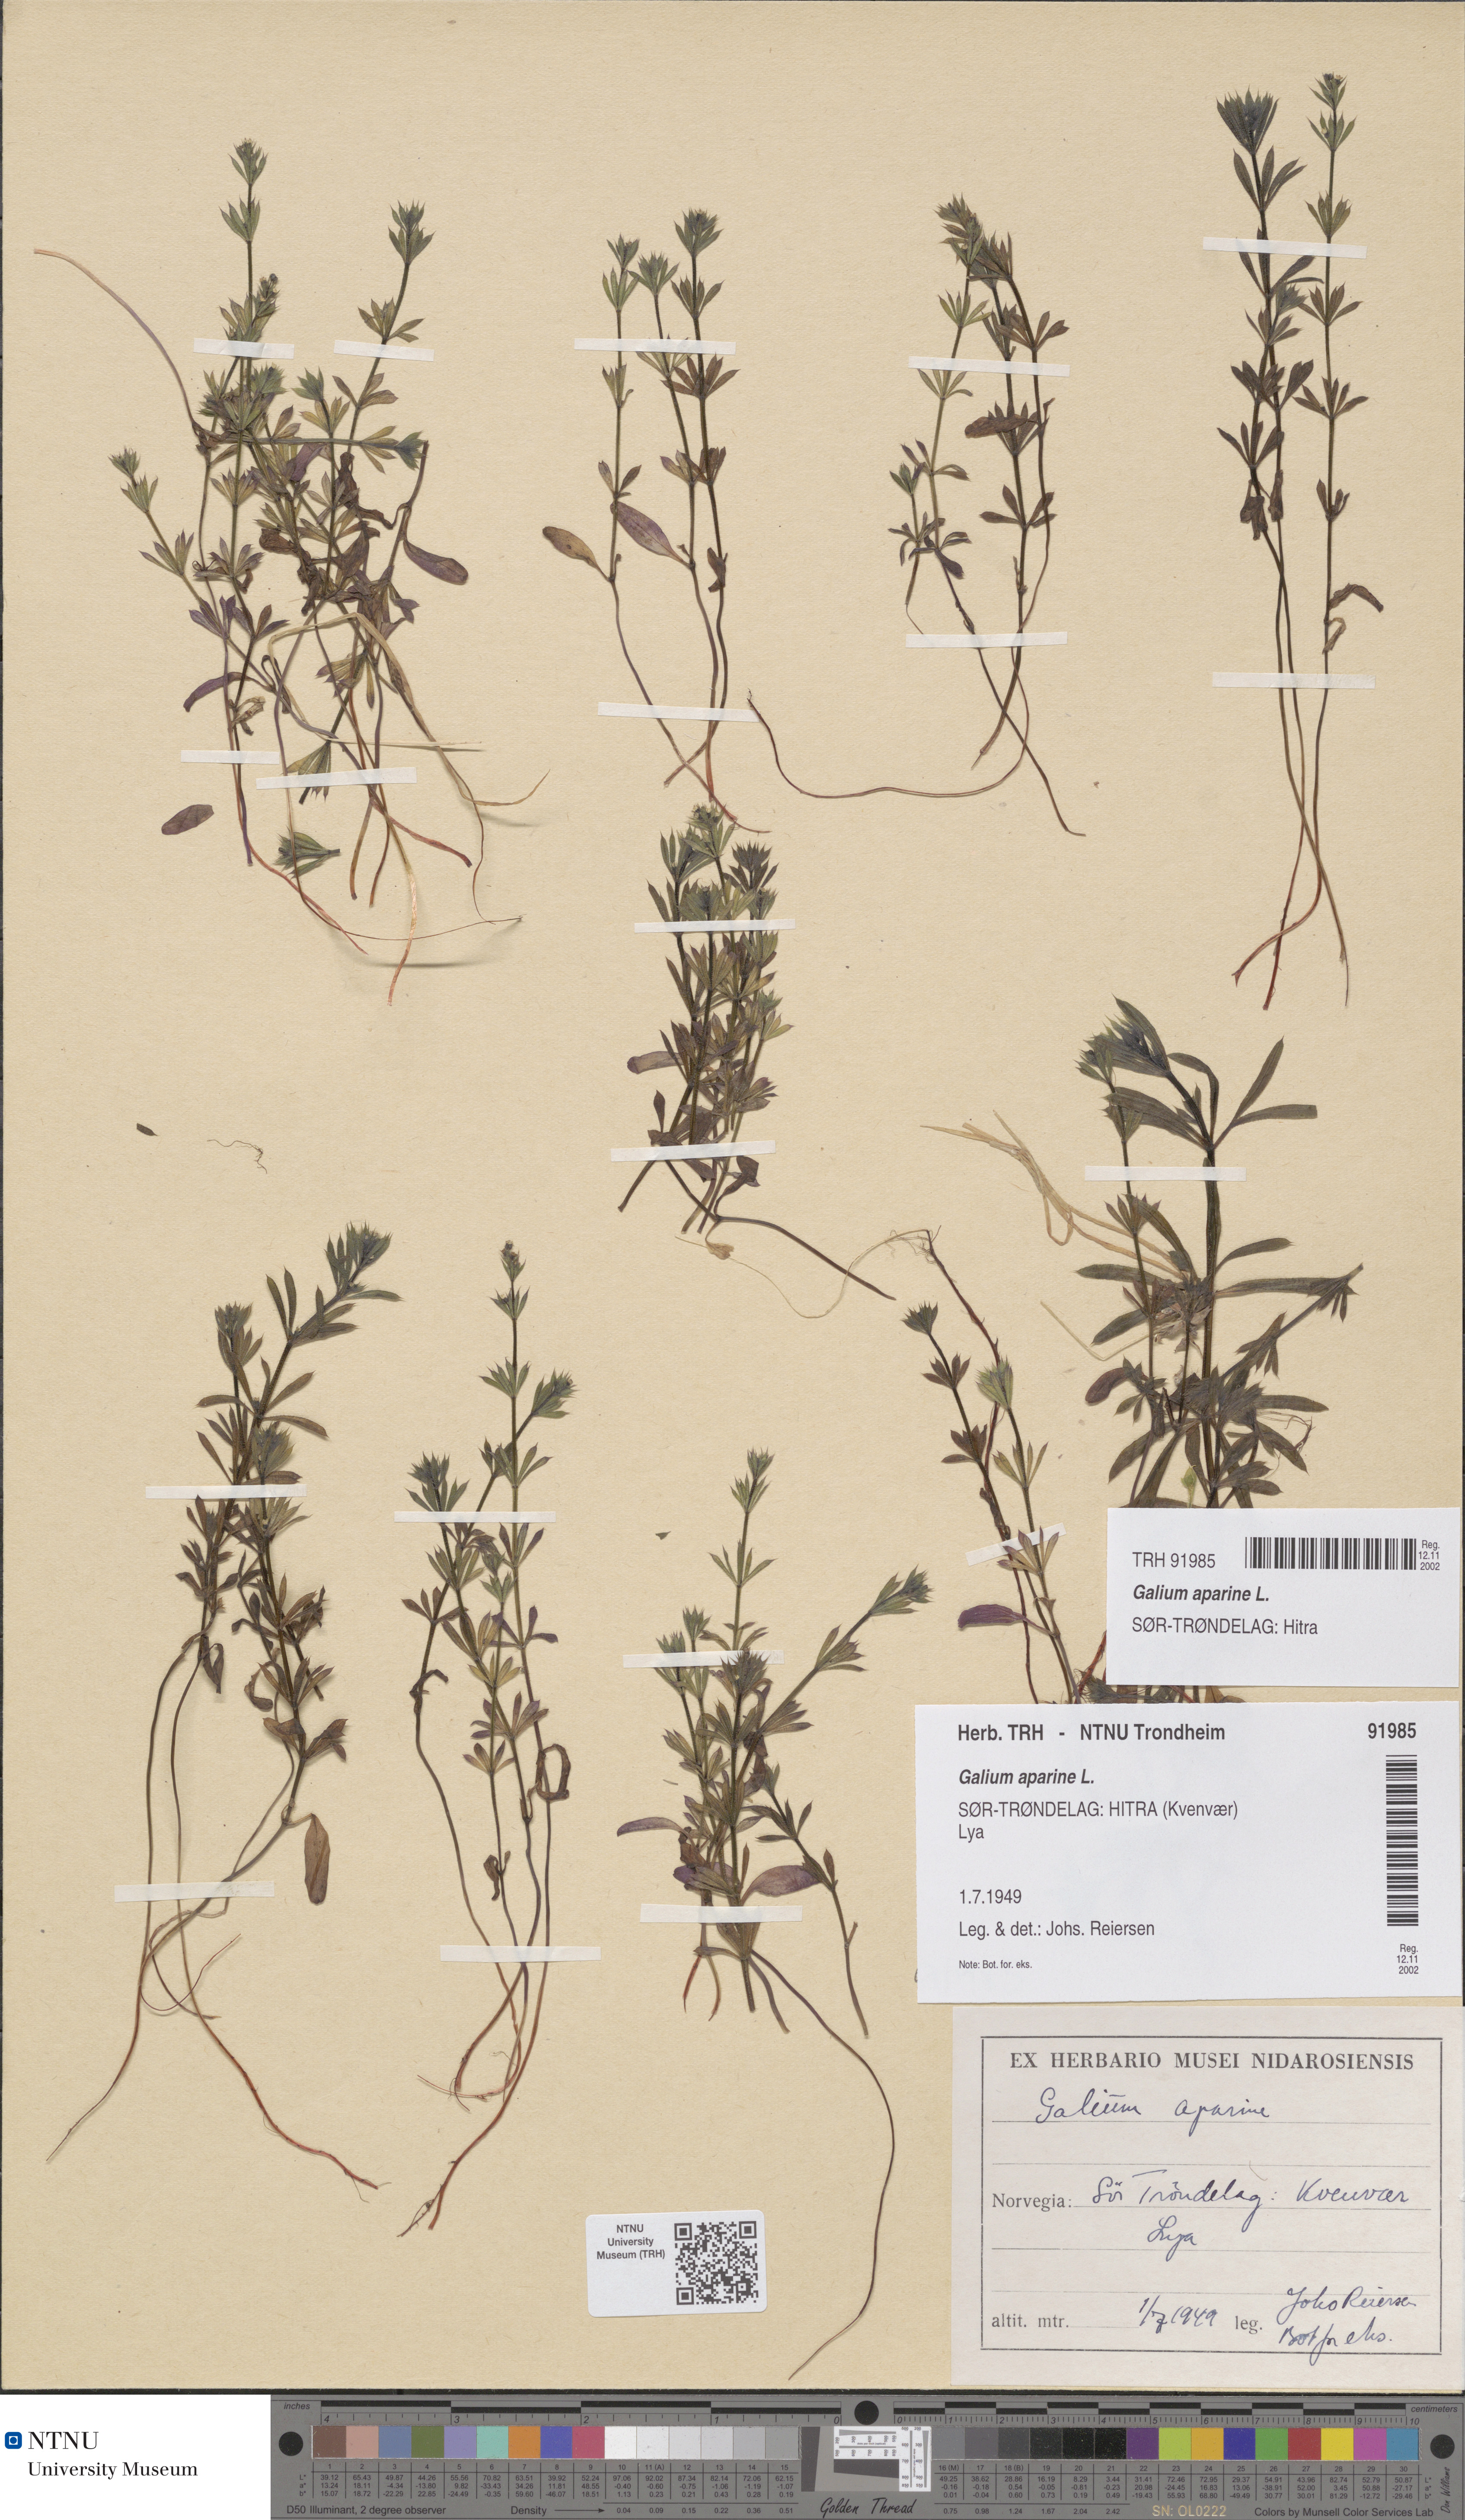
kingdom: Plantae
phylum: Tracheophyta
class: Magnoliopsida
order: Gentianales
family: Rubiaceae
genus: Galium
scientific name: Galium aparine
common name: Cleavers
